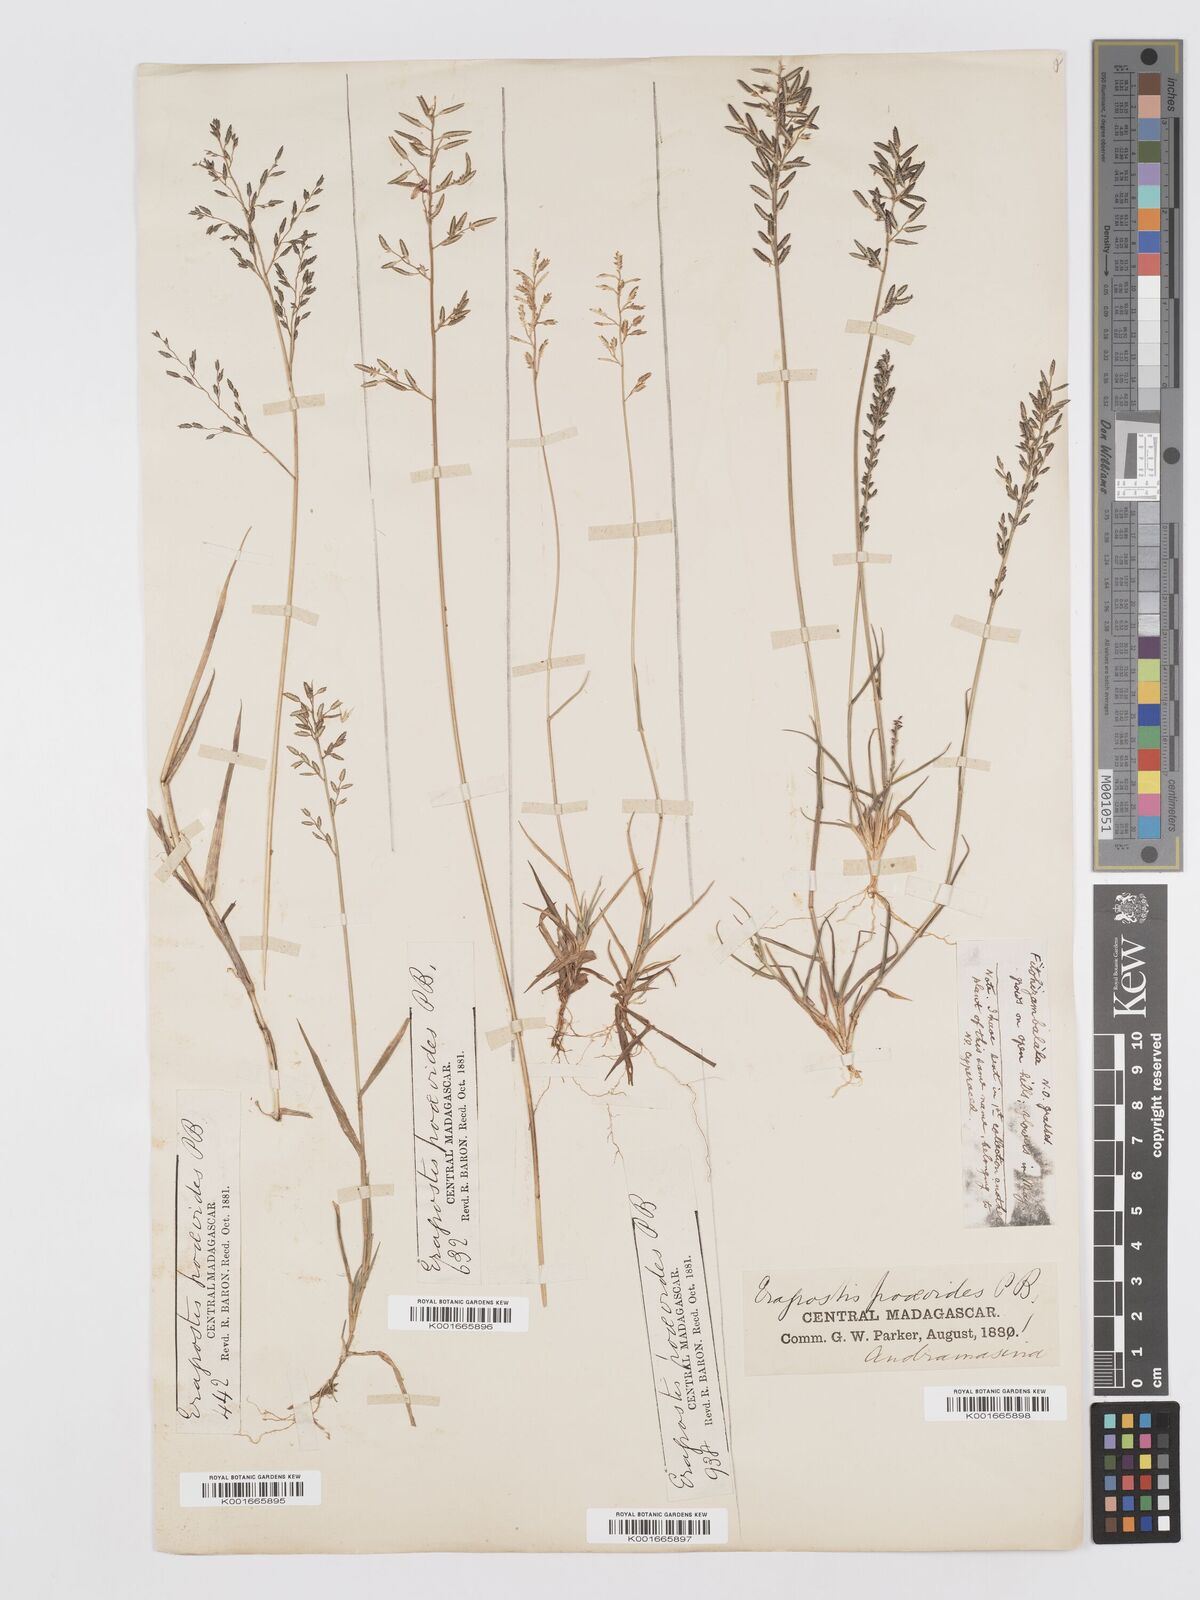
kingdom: Plantae
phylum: Tracheophyta
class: Liliopsida
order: Poales
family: Poaceae
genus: Eragrostis
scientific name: Eragrostis lateritica
